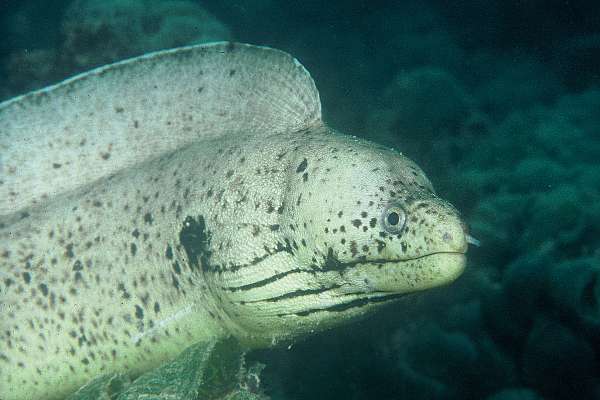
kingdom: Animalia
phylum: Chordata
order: Anguilliformes
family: Muraenidae
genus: Gymnothorax
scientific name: Gymnothorax steindachneri
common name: Brown speckled eel
